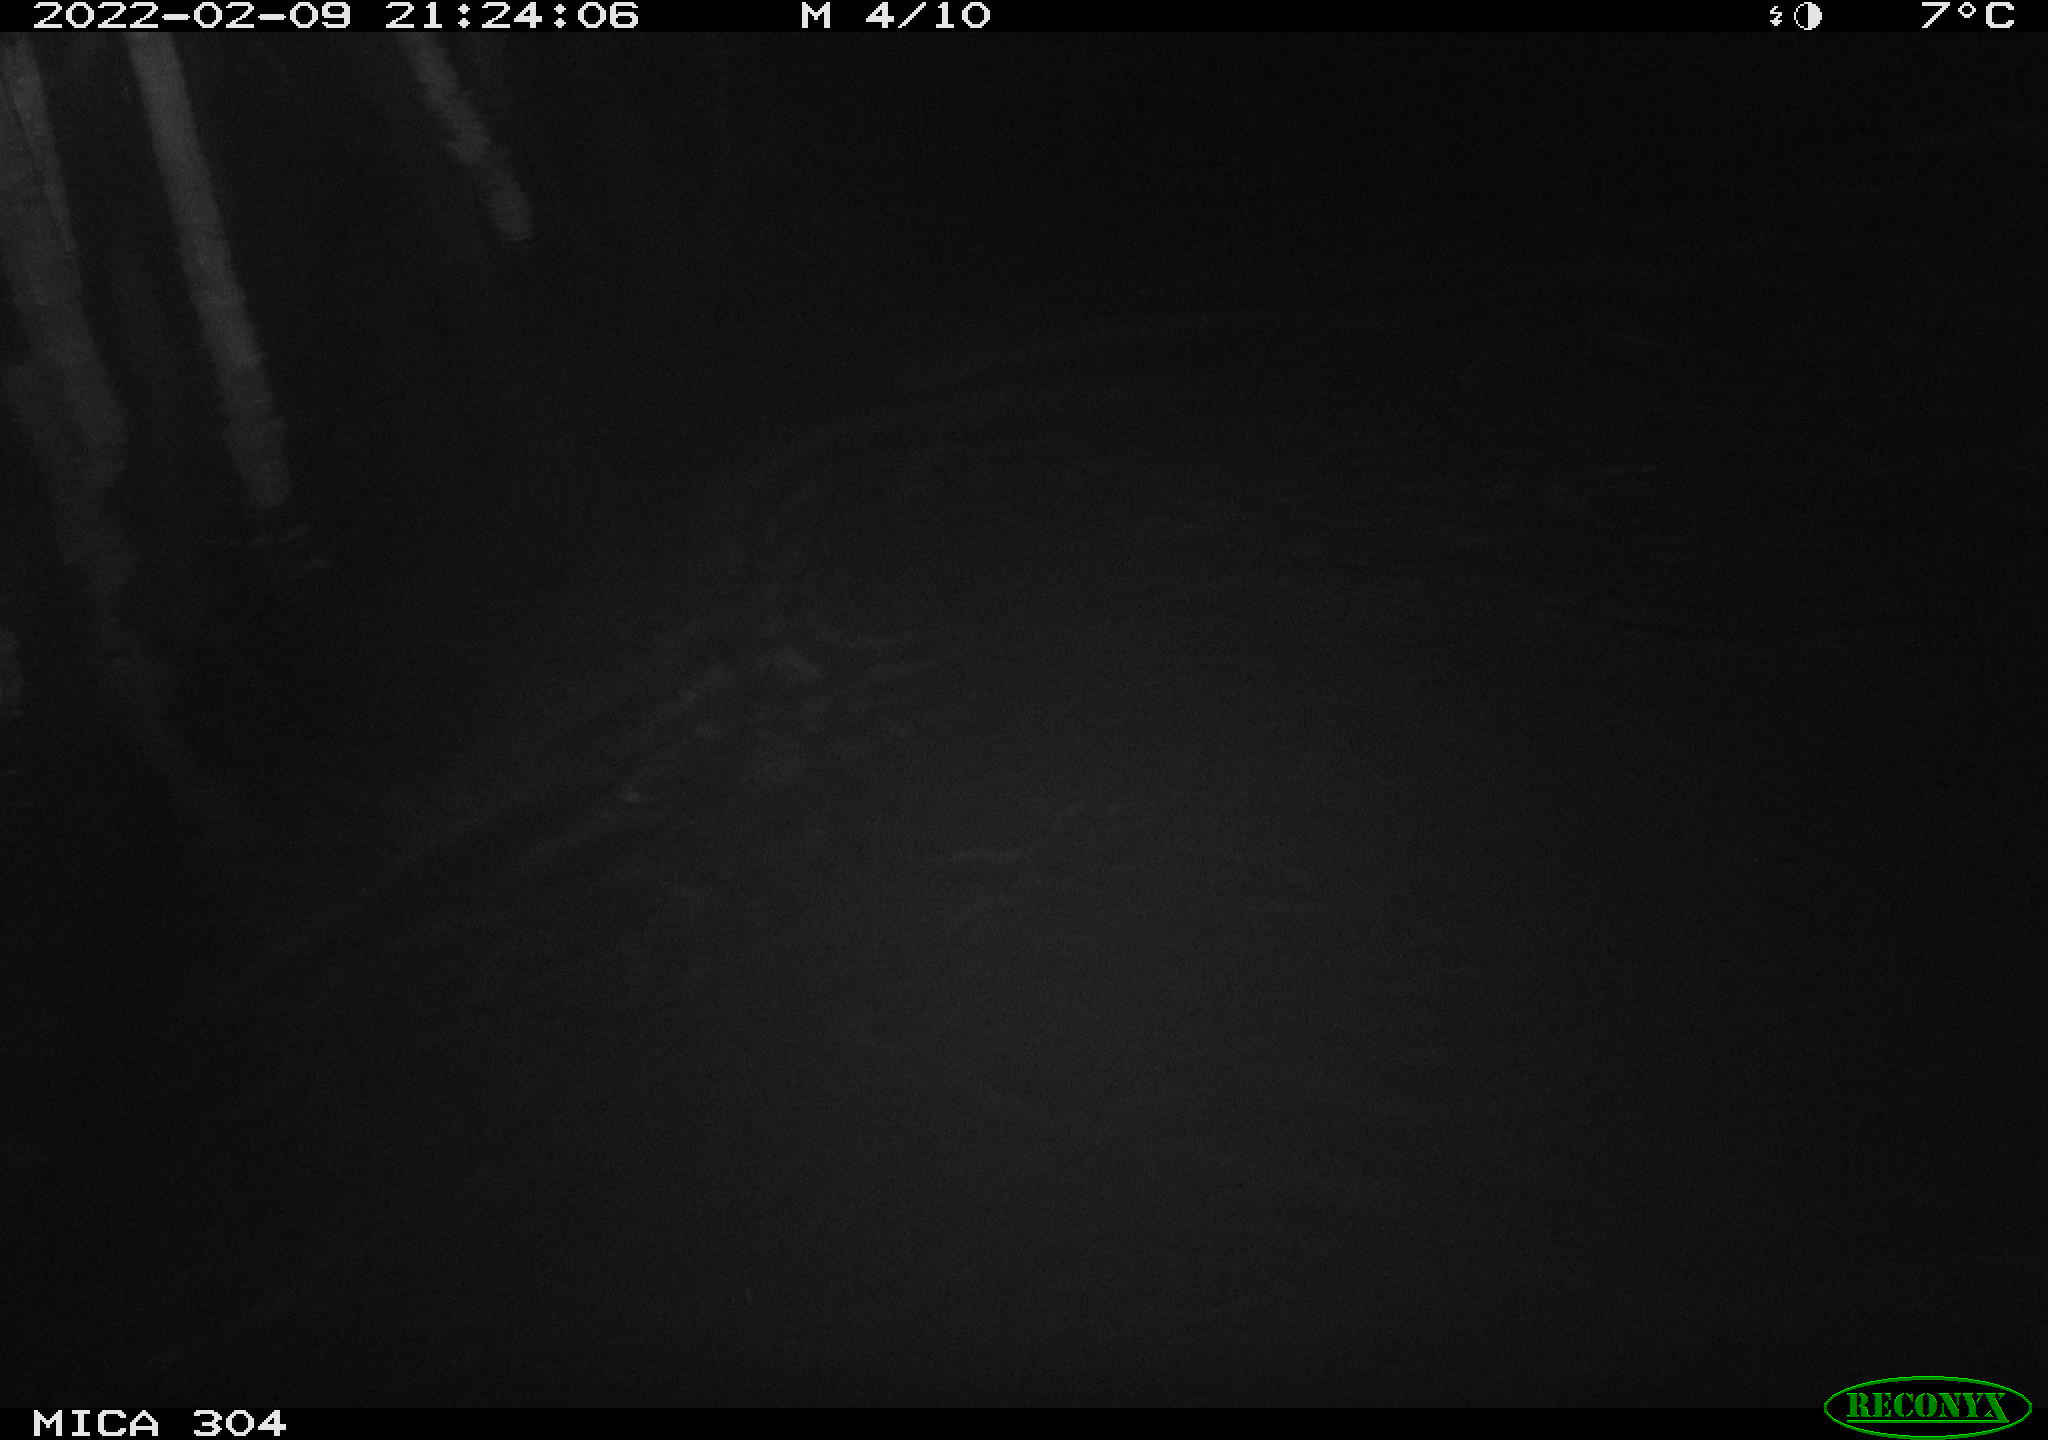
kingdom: Animalia
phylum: Chordata
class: Mammalia
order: Rodentia
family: Cricetidae
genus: Ondatra
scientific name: Ondatra zibethicus
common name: Muskrat
